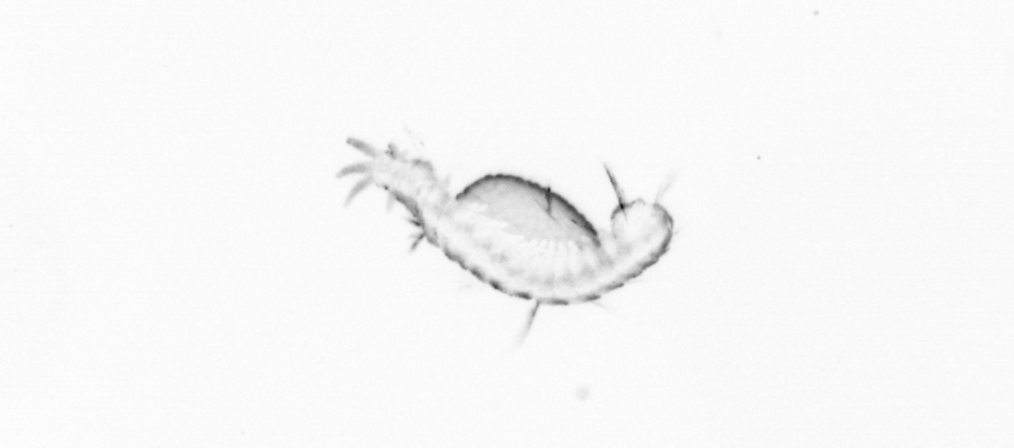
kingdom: Animalia
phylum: Annelida
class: Polychaeta
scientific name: Polychaeta
